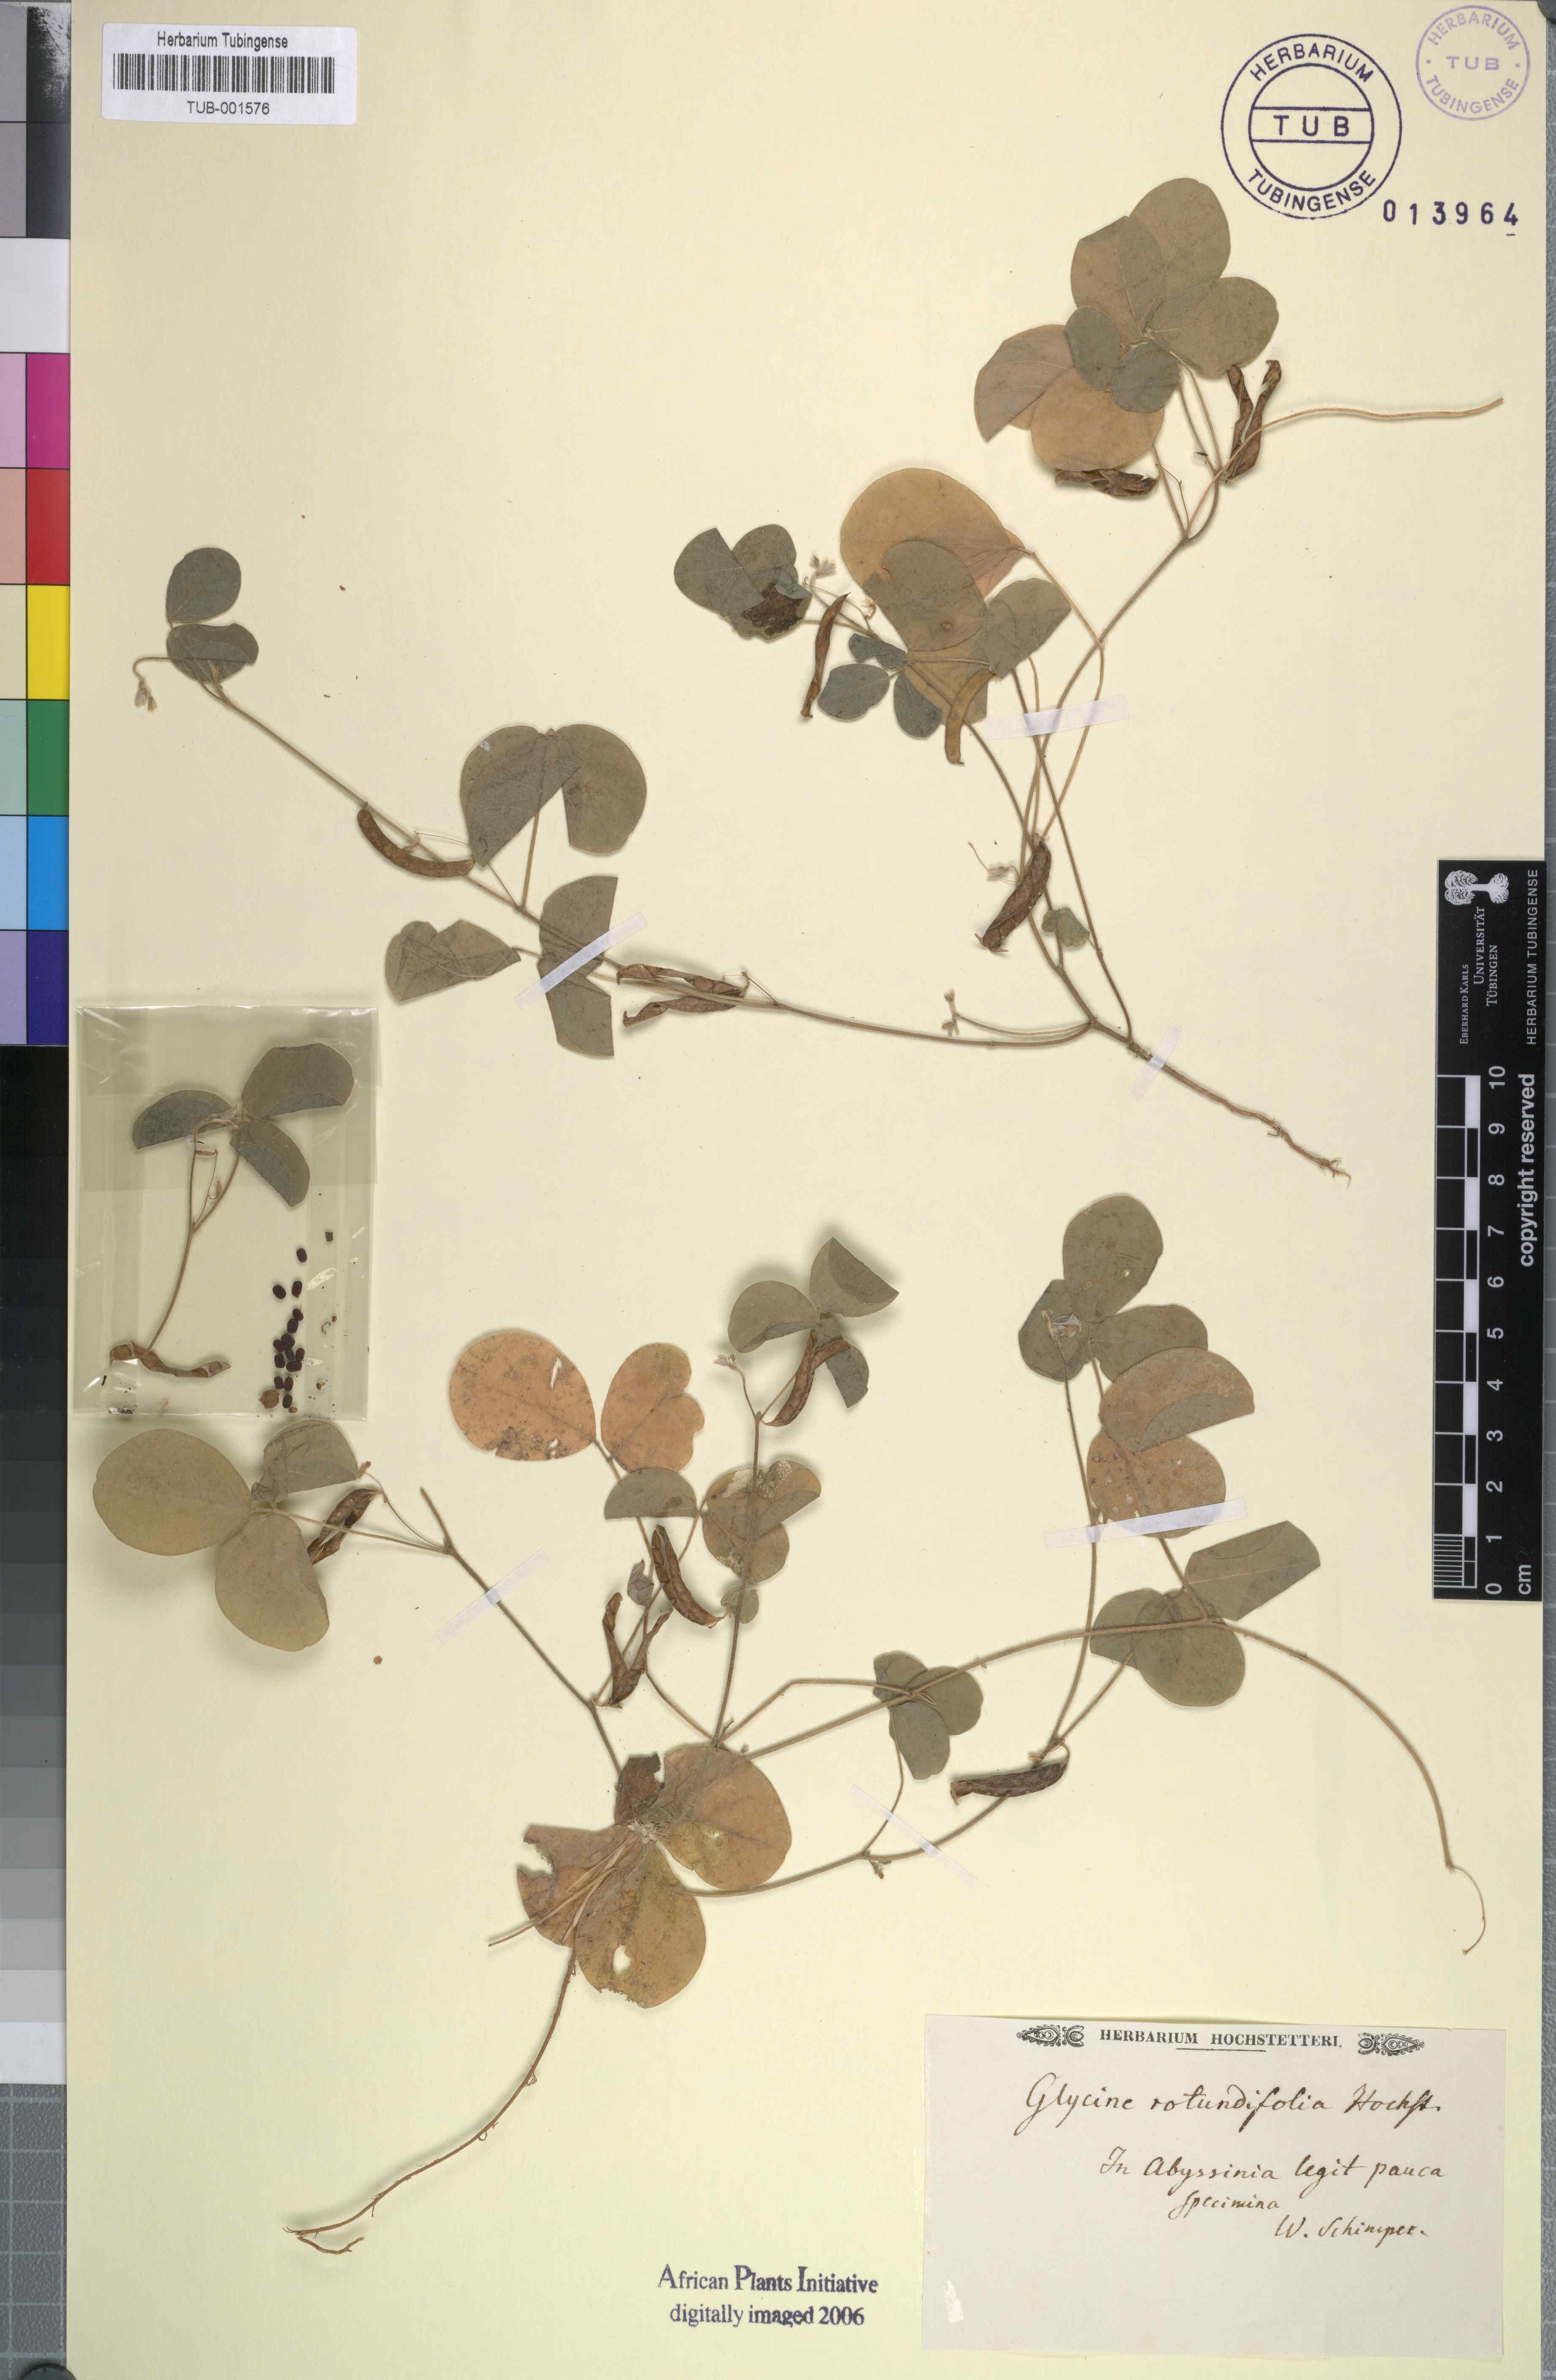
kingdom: Plantae
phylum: Tracheophyta
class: Magnoliopsida
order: Fabales
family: Fabaceae
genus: Glycine
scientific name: Glycine
